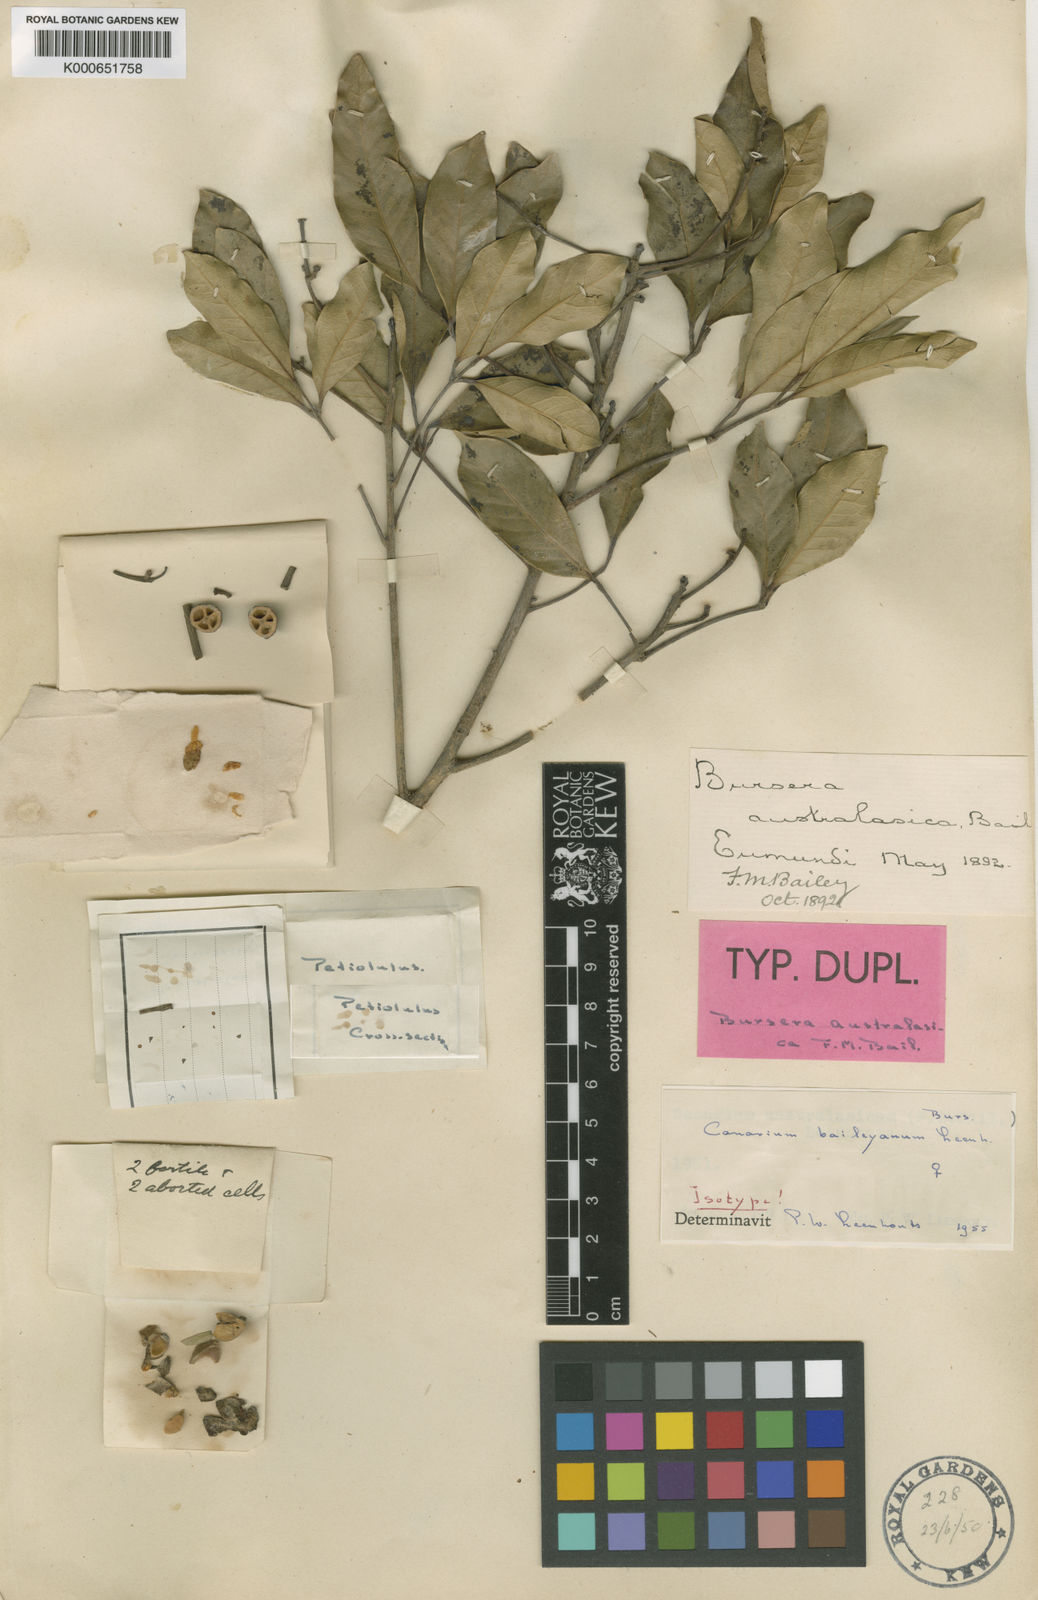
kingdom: Plantae
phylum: Tracheophyta
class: Magnoliopsida
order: Sapindales
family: Burseraceae
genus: Canarium
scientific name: Canarium australasicum
